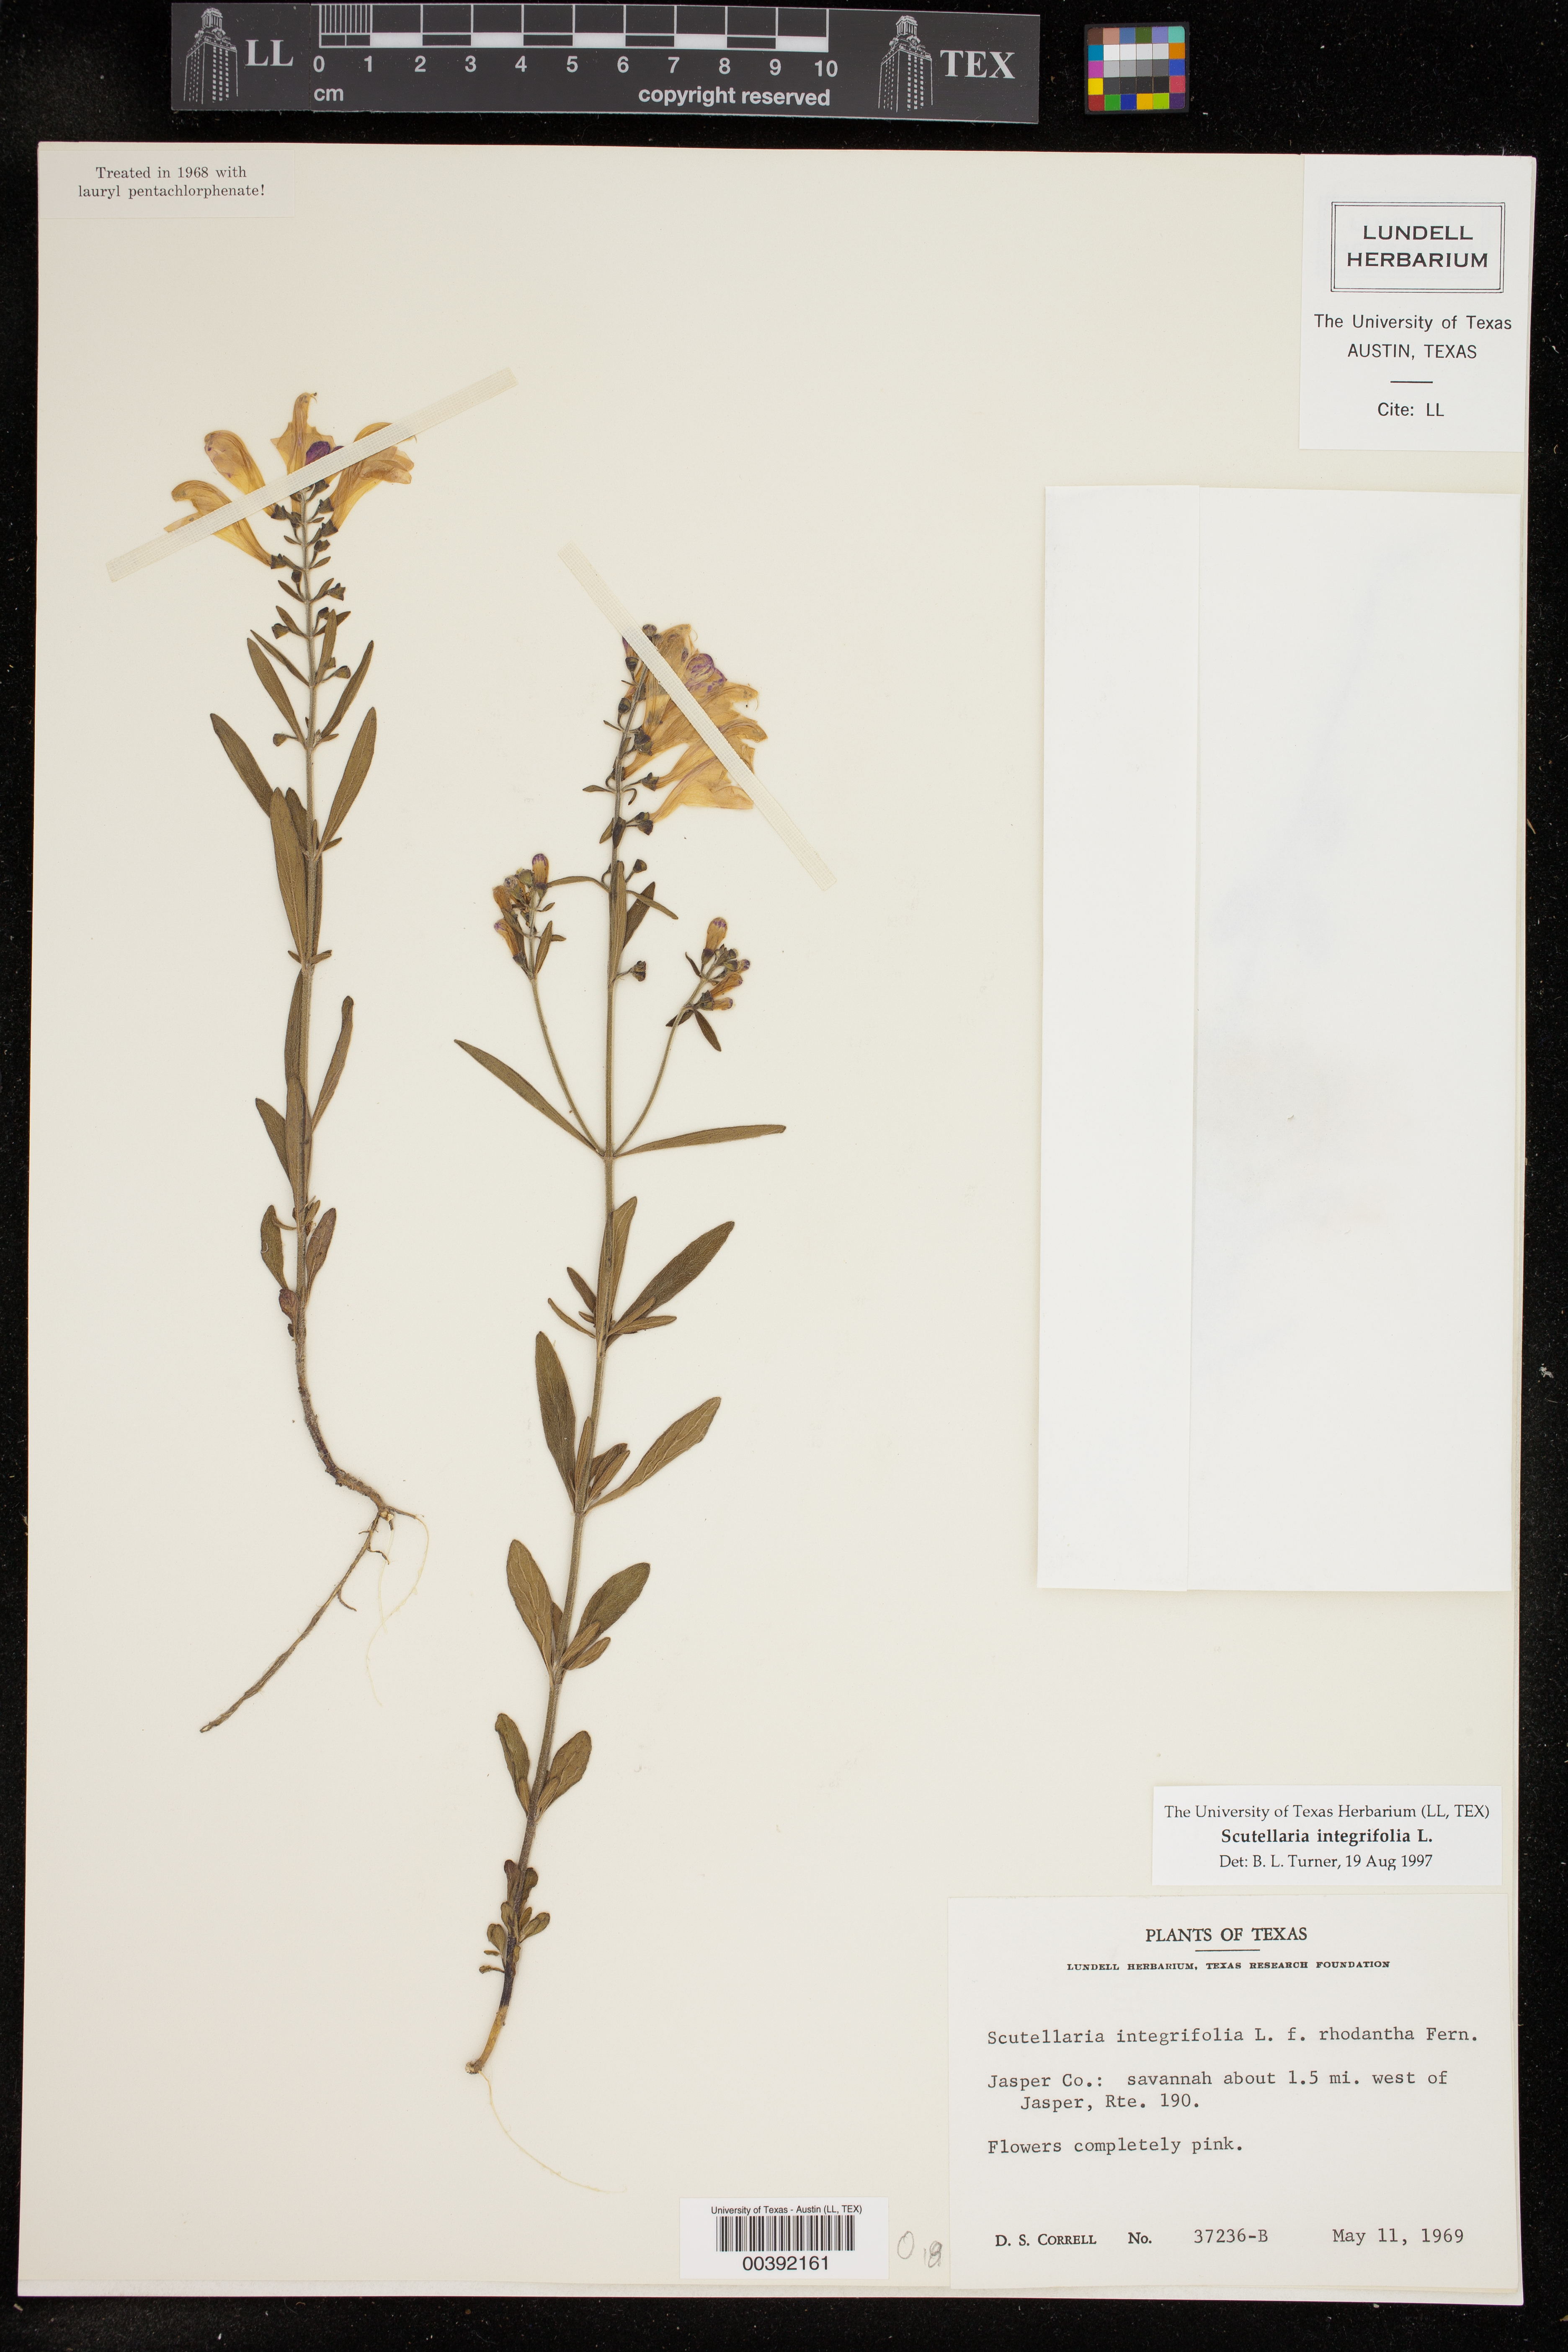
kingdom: Plantae
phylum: Tracheophyta
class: Magnoliopsida
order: Lamiales
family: Lamiaceae
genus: Scutellaria
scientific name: Scutellaria integrifolia
